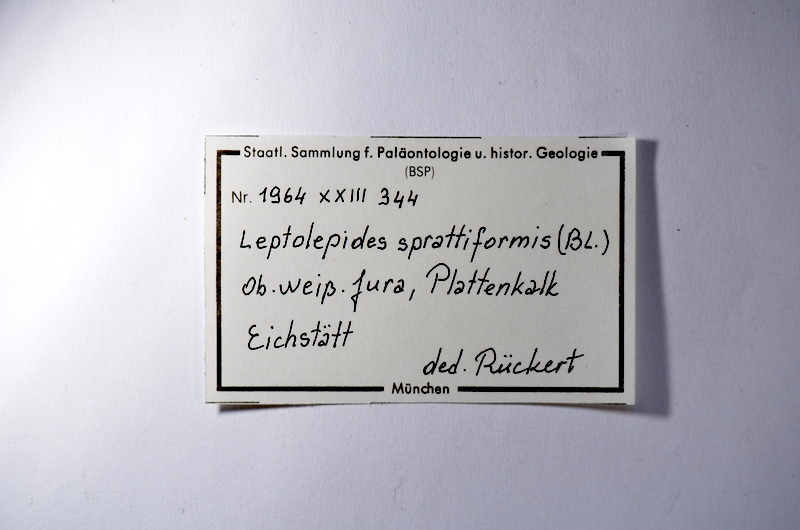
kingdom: Animalia
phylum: Chordata
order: Salmoniformes
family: Orthogonikleithridae
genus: Leptolepides
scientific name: Leptolepides sprattiformis
